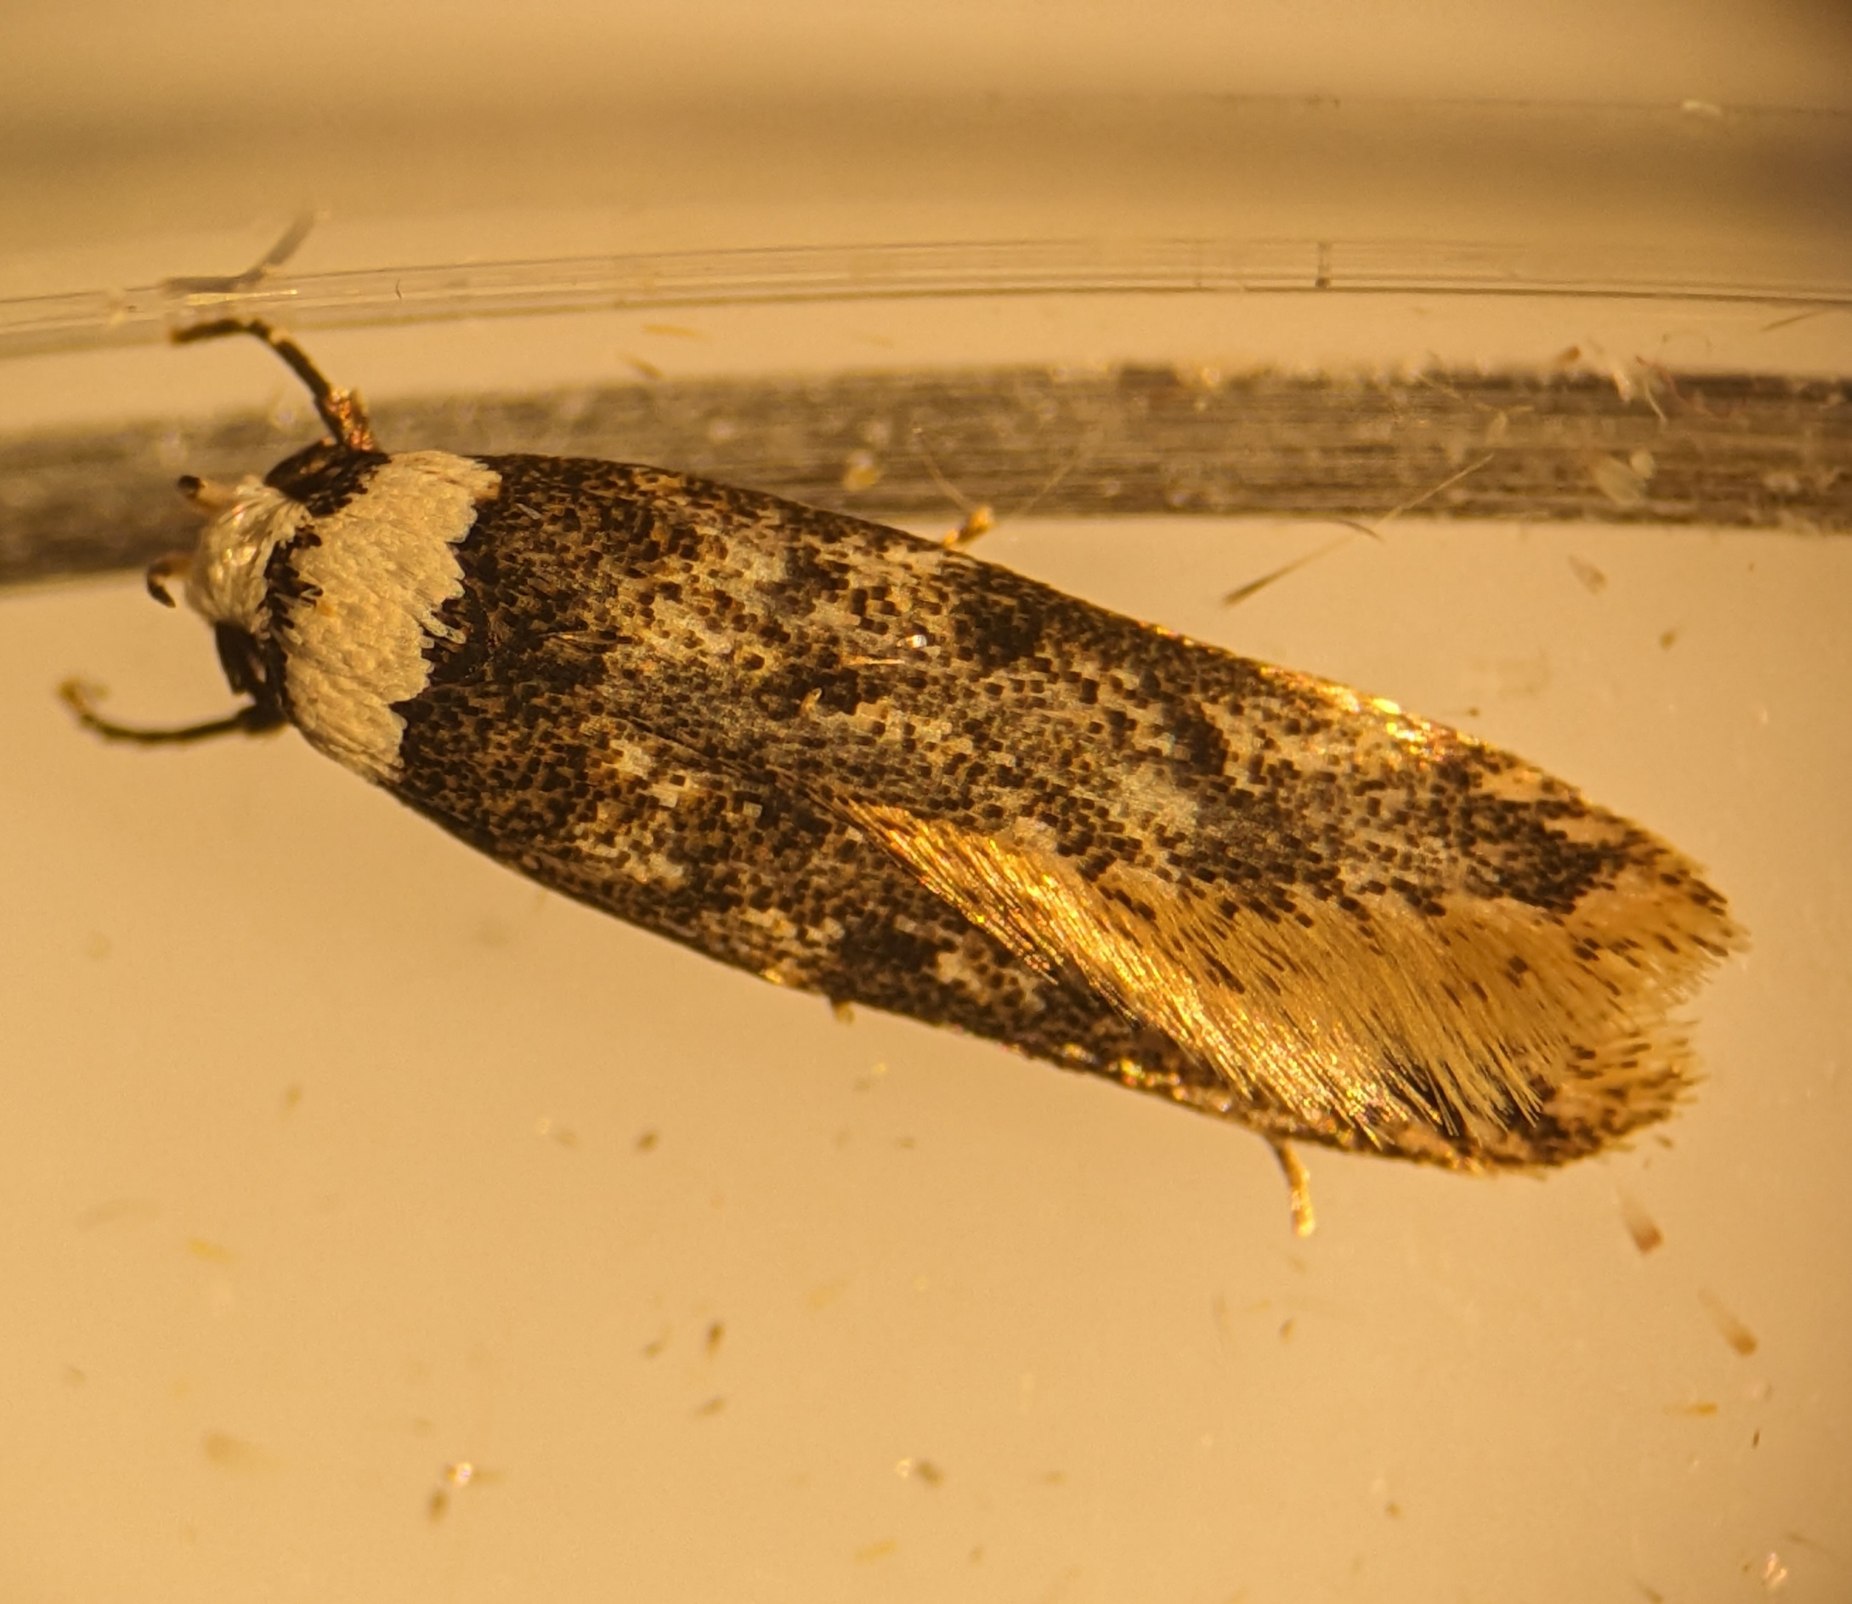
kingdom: Animalia
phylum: Arthropoda
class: Insecta
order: Lepidoptera
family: Oecophoridae
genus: Endrosis
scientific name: Endrosis sarcitrella
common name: Klistermøl
